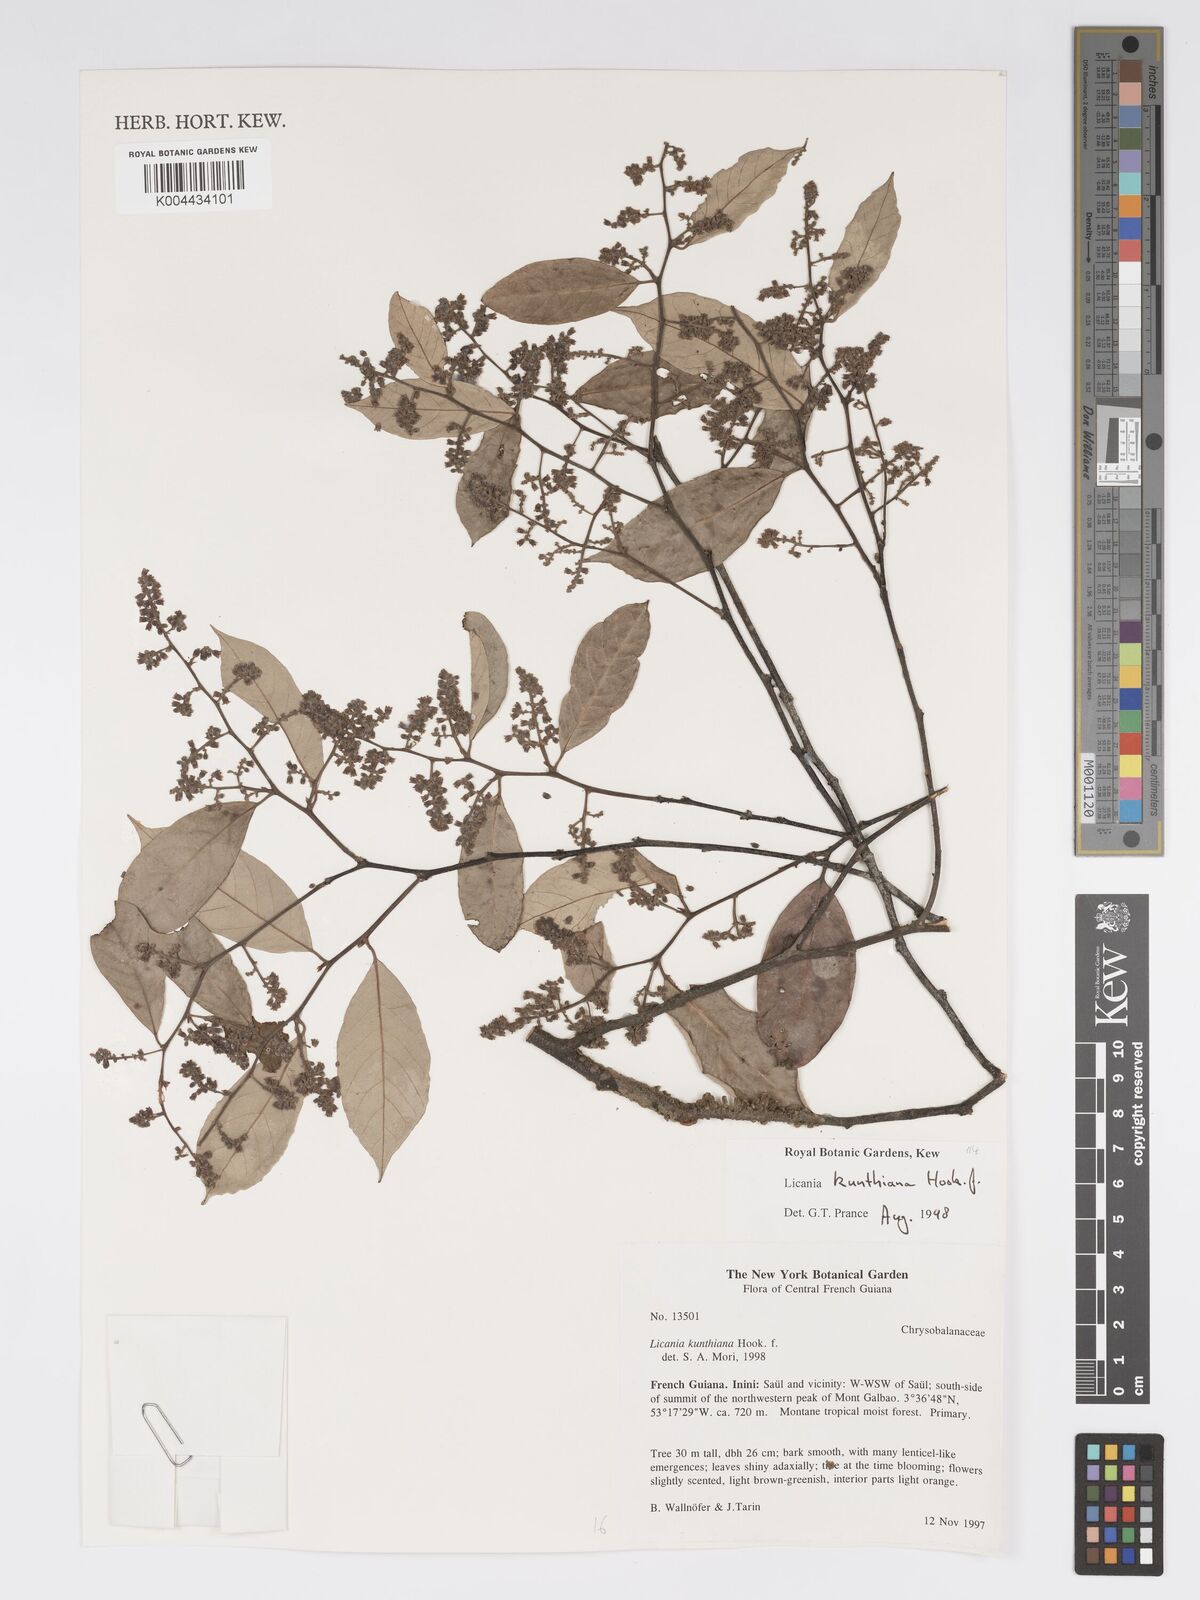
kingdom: Plantae
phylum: Tracheophyta
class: Magnoliopsida
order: Malpighiales
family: Chrysobalanaceae
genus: Licania
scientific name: Licania kunthiana
